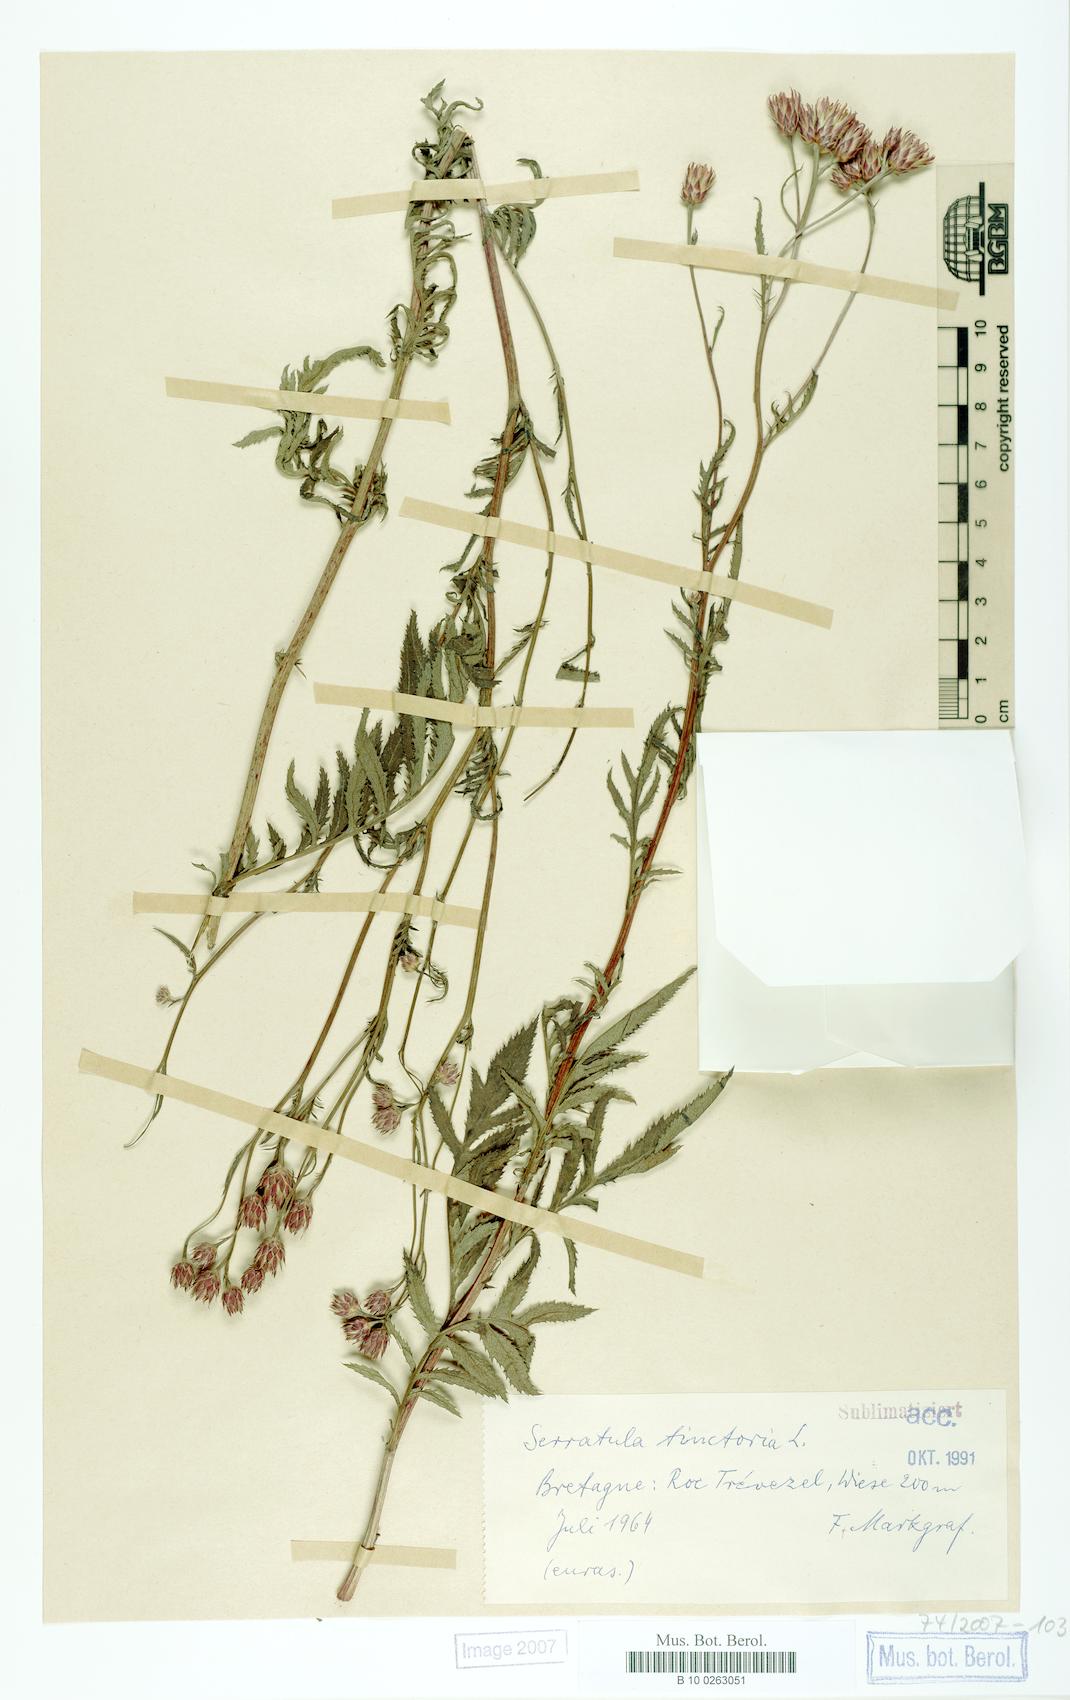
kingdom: Plantae
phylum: Tracheophyta
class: Magnoliopsida
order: Asterales
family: Asteraceae
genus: Serratula
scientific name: Serratula tinctoria
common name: Saw-wort
